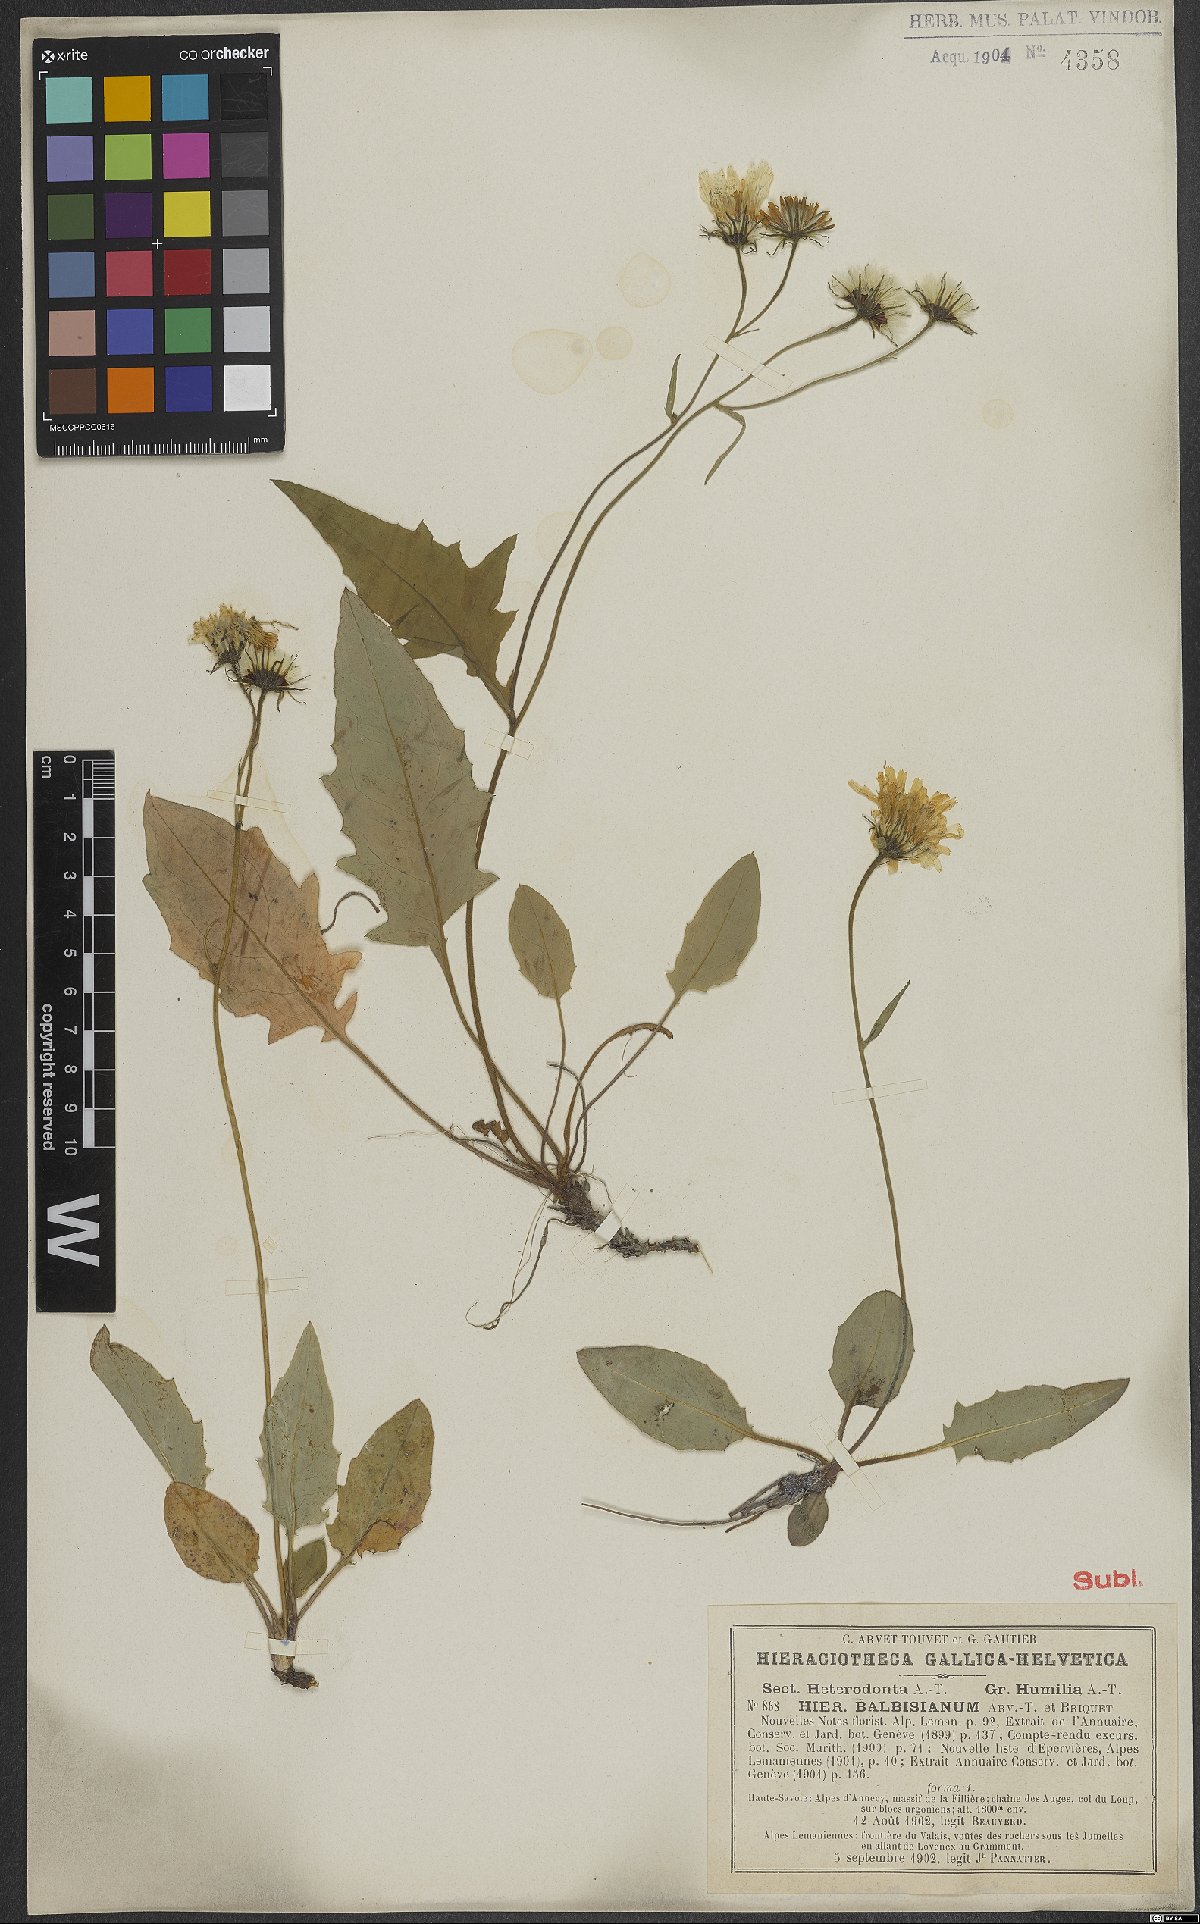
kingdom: Plantae
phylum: Tracheophyta
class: Magnoliopsida
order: Asterales
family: Asteraceae
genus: Hieracium
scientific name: Hieracium balbisianum
